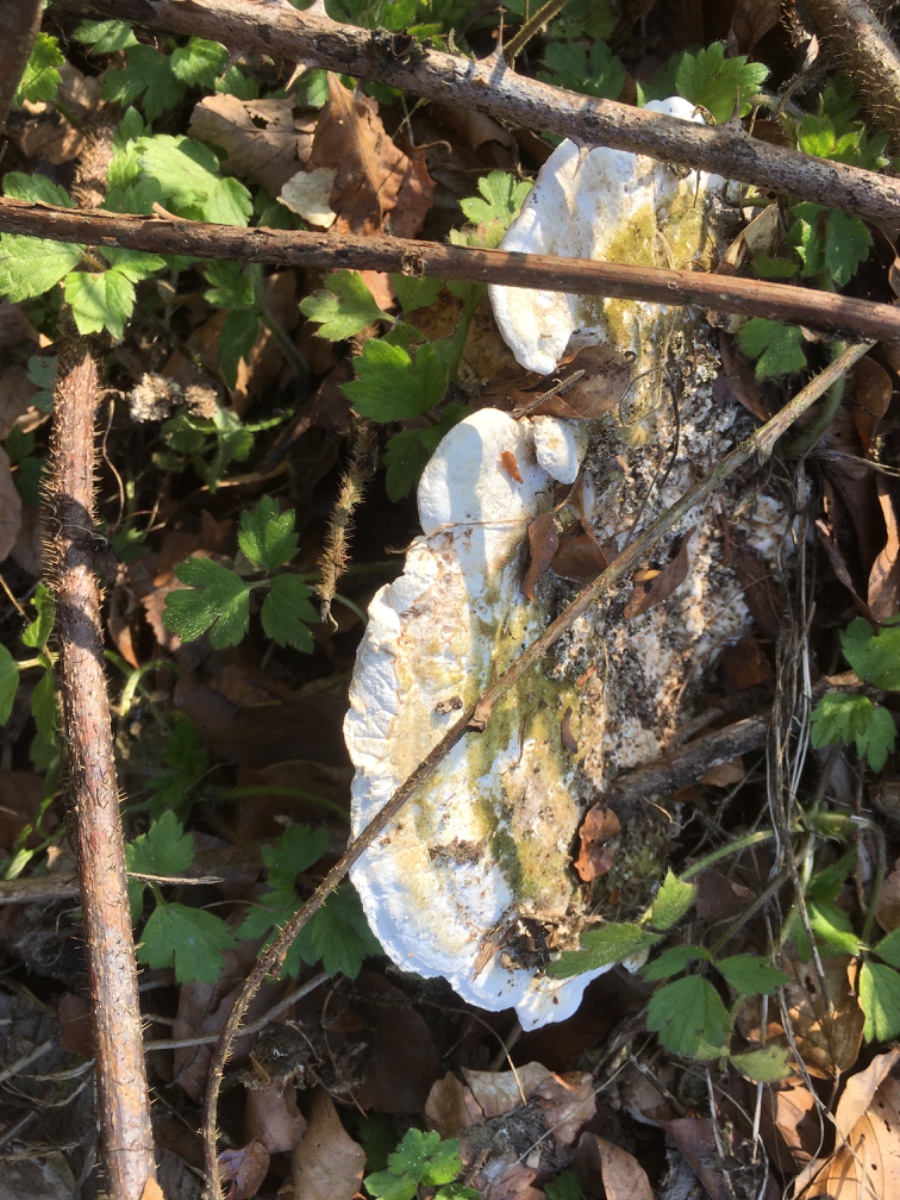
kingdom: Fungi
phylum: Basidiomycota
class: Agaricomycetes
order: Polyporales
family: Polyporaceae
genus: Trametes
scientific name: Trametes gibbosa
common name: puklet læderporesvamp
